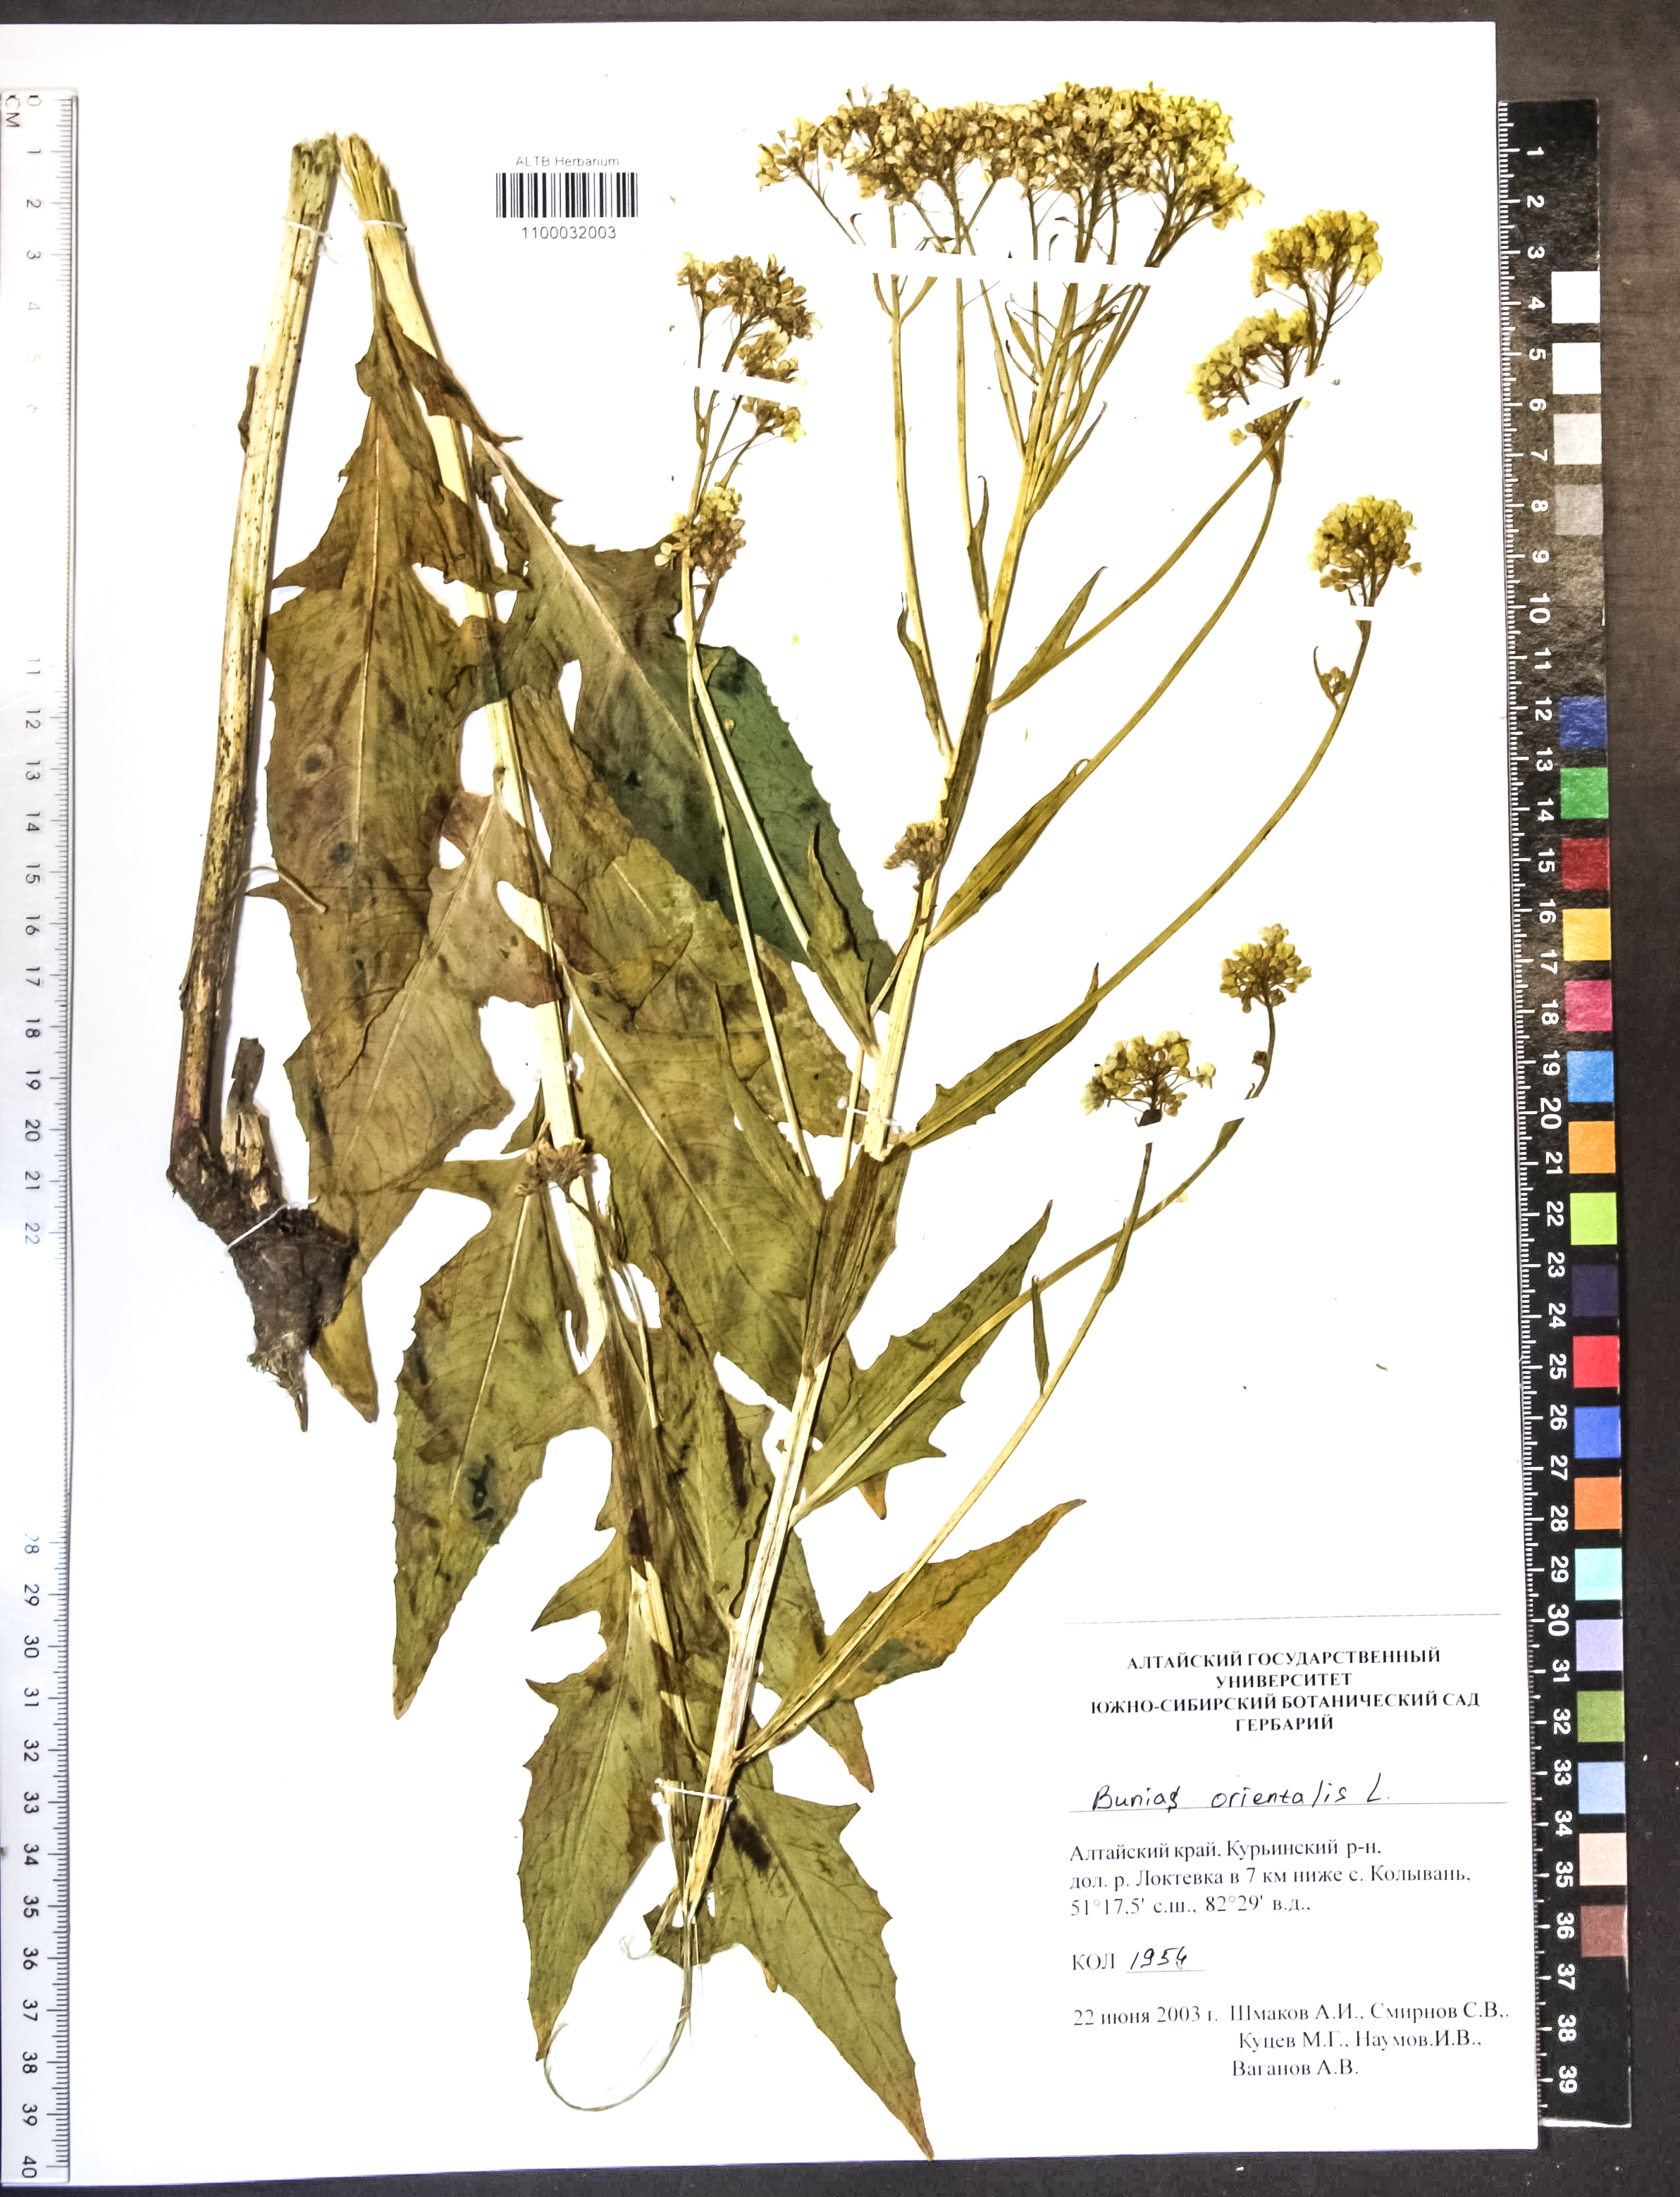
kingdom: Plantae
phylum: Tracheophyta
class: Magnoliopsida
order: Brassicales
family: Brassicaceae
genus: Bunias
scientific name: Bunias orientalis
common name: Warty-cabbage
